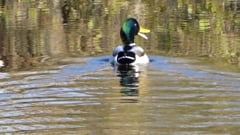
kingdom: Animalia
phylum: Chordata
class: Aves
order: Anseriformes
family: Anatidae
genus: Anas
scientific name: Anas platyrhynchos
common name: Mallard
